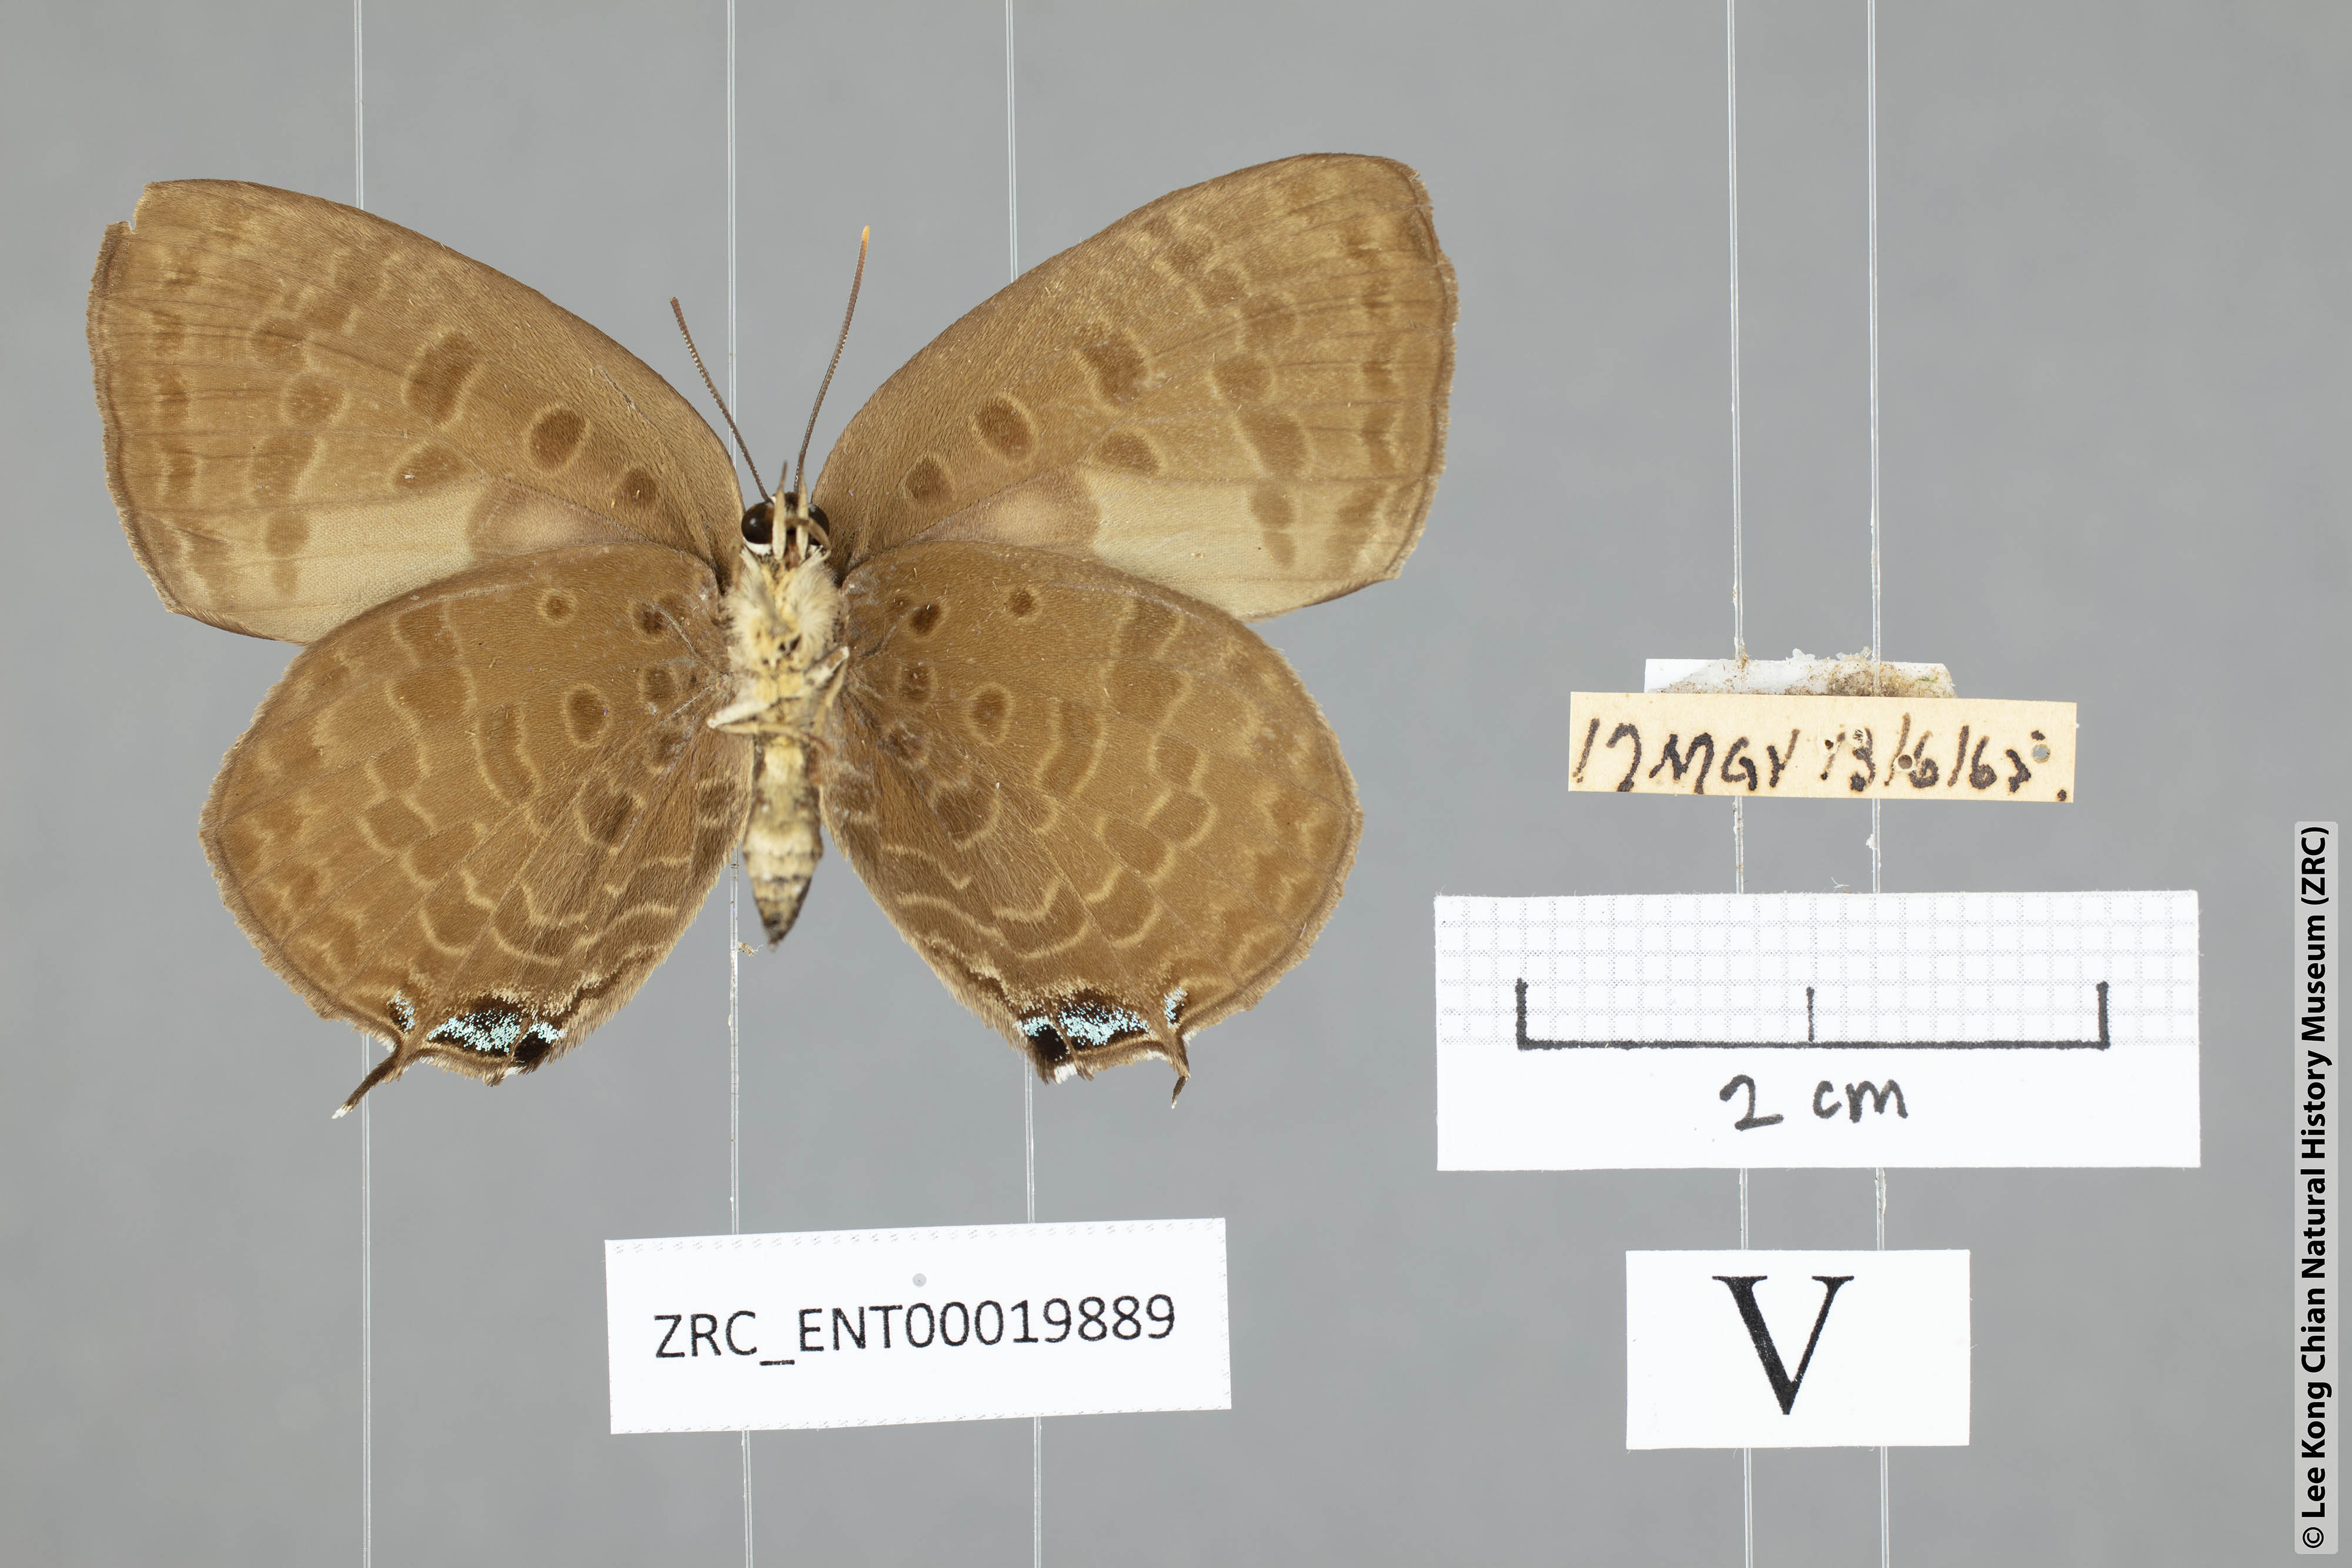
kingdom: Animalia
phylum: Arthropoda
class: Insecta
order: Lepidoptera
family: Lycaenidae
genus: Arhopala
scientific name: Arhopala
